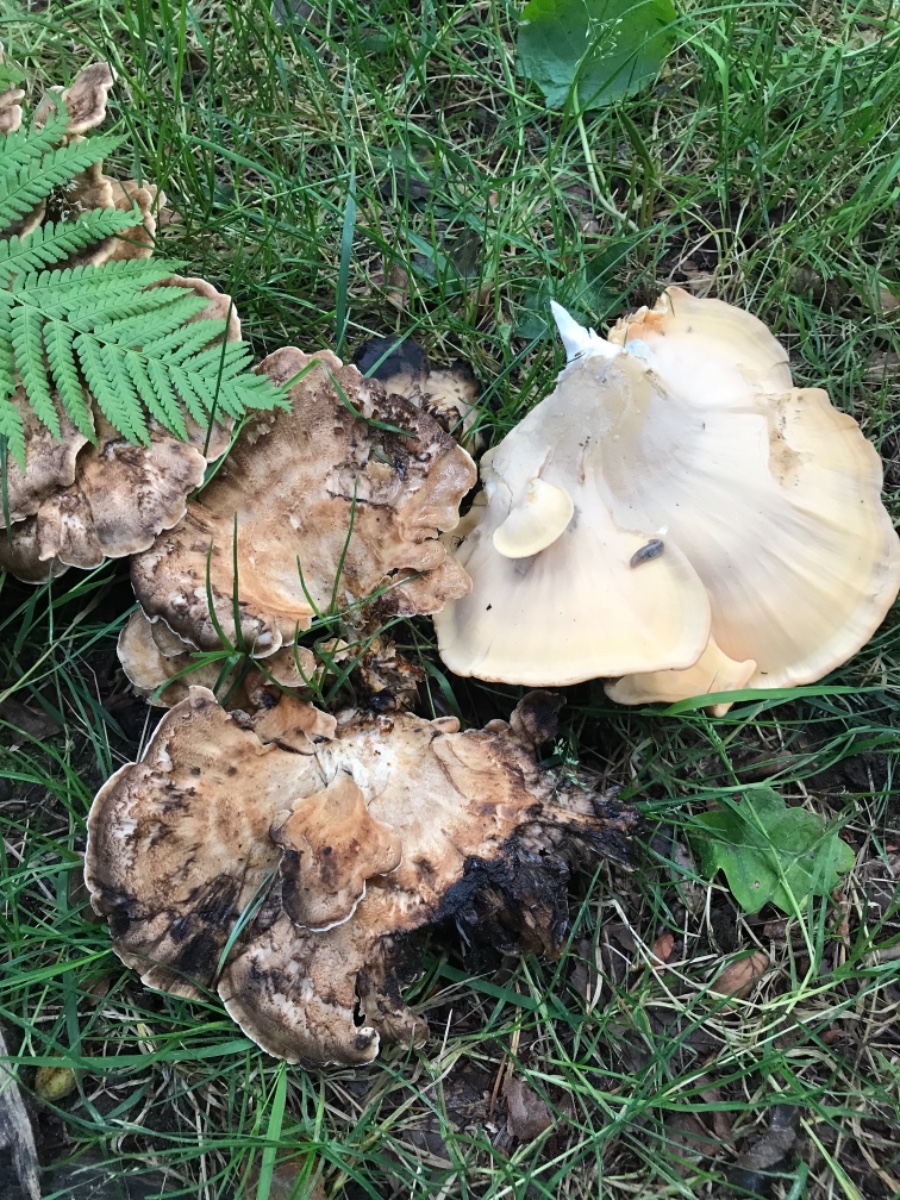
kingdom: Fungi
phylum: Basidiomycota
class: Agaricomycetes
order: Polyporales
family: Meripilaceae
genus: Meripilus
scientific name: Meripilus giganteus
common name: kæmpeporesvamp
